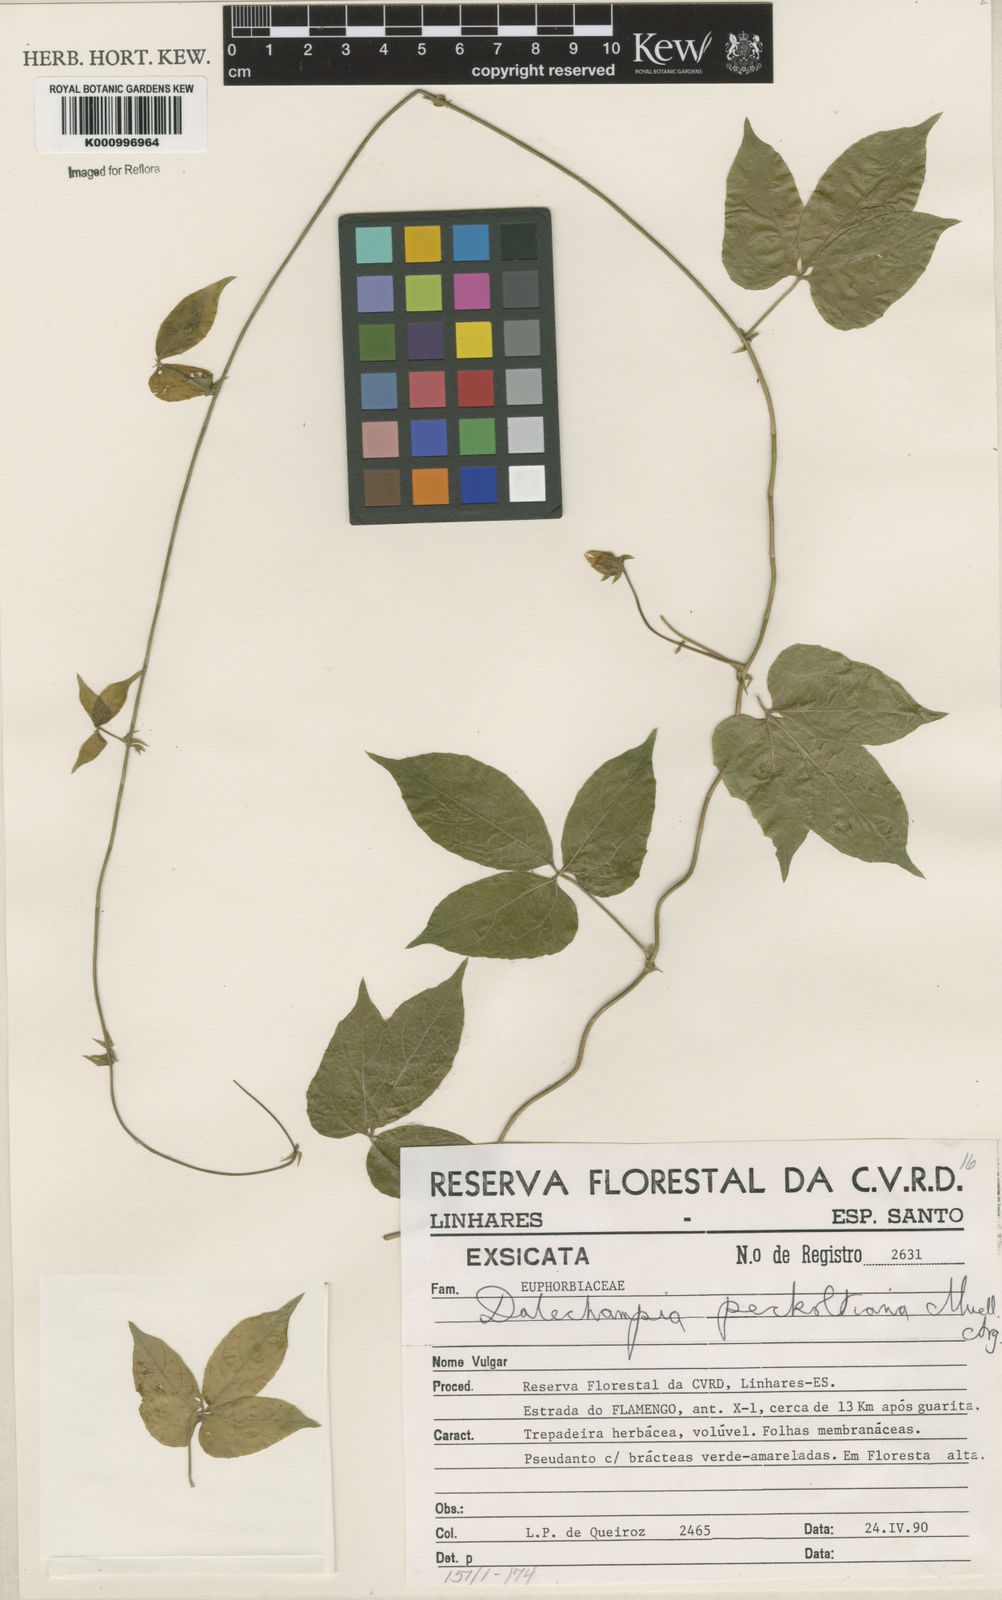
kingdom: Plantae
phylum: Tracheophyta
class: Magnoliopsida
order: Malpighiales
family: Euphorbiaceae
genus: Dalechampia
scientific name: Dalechampia
